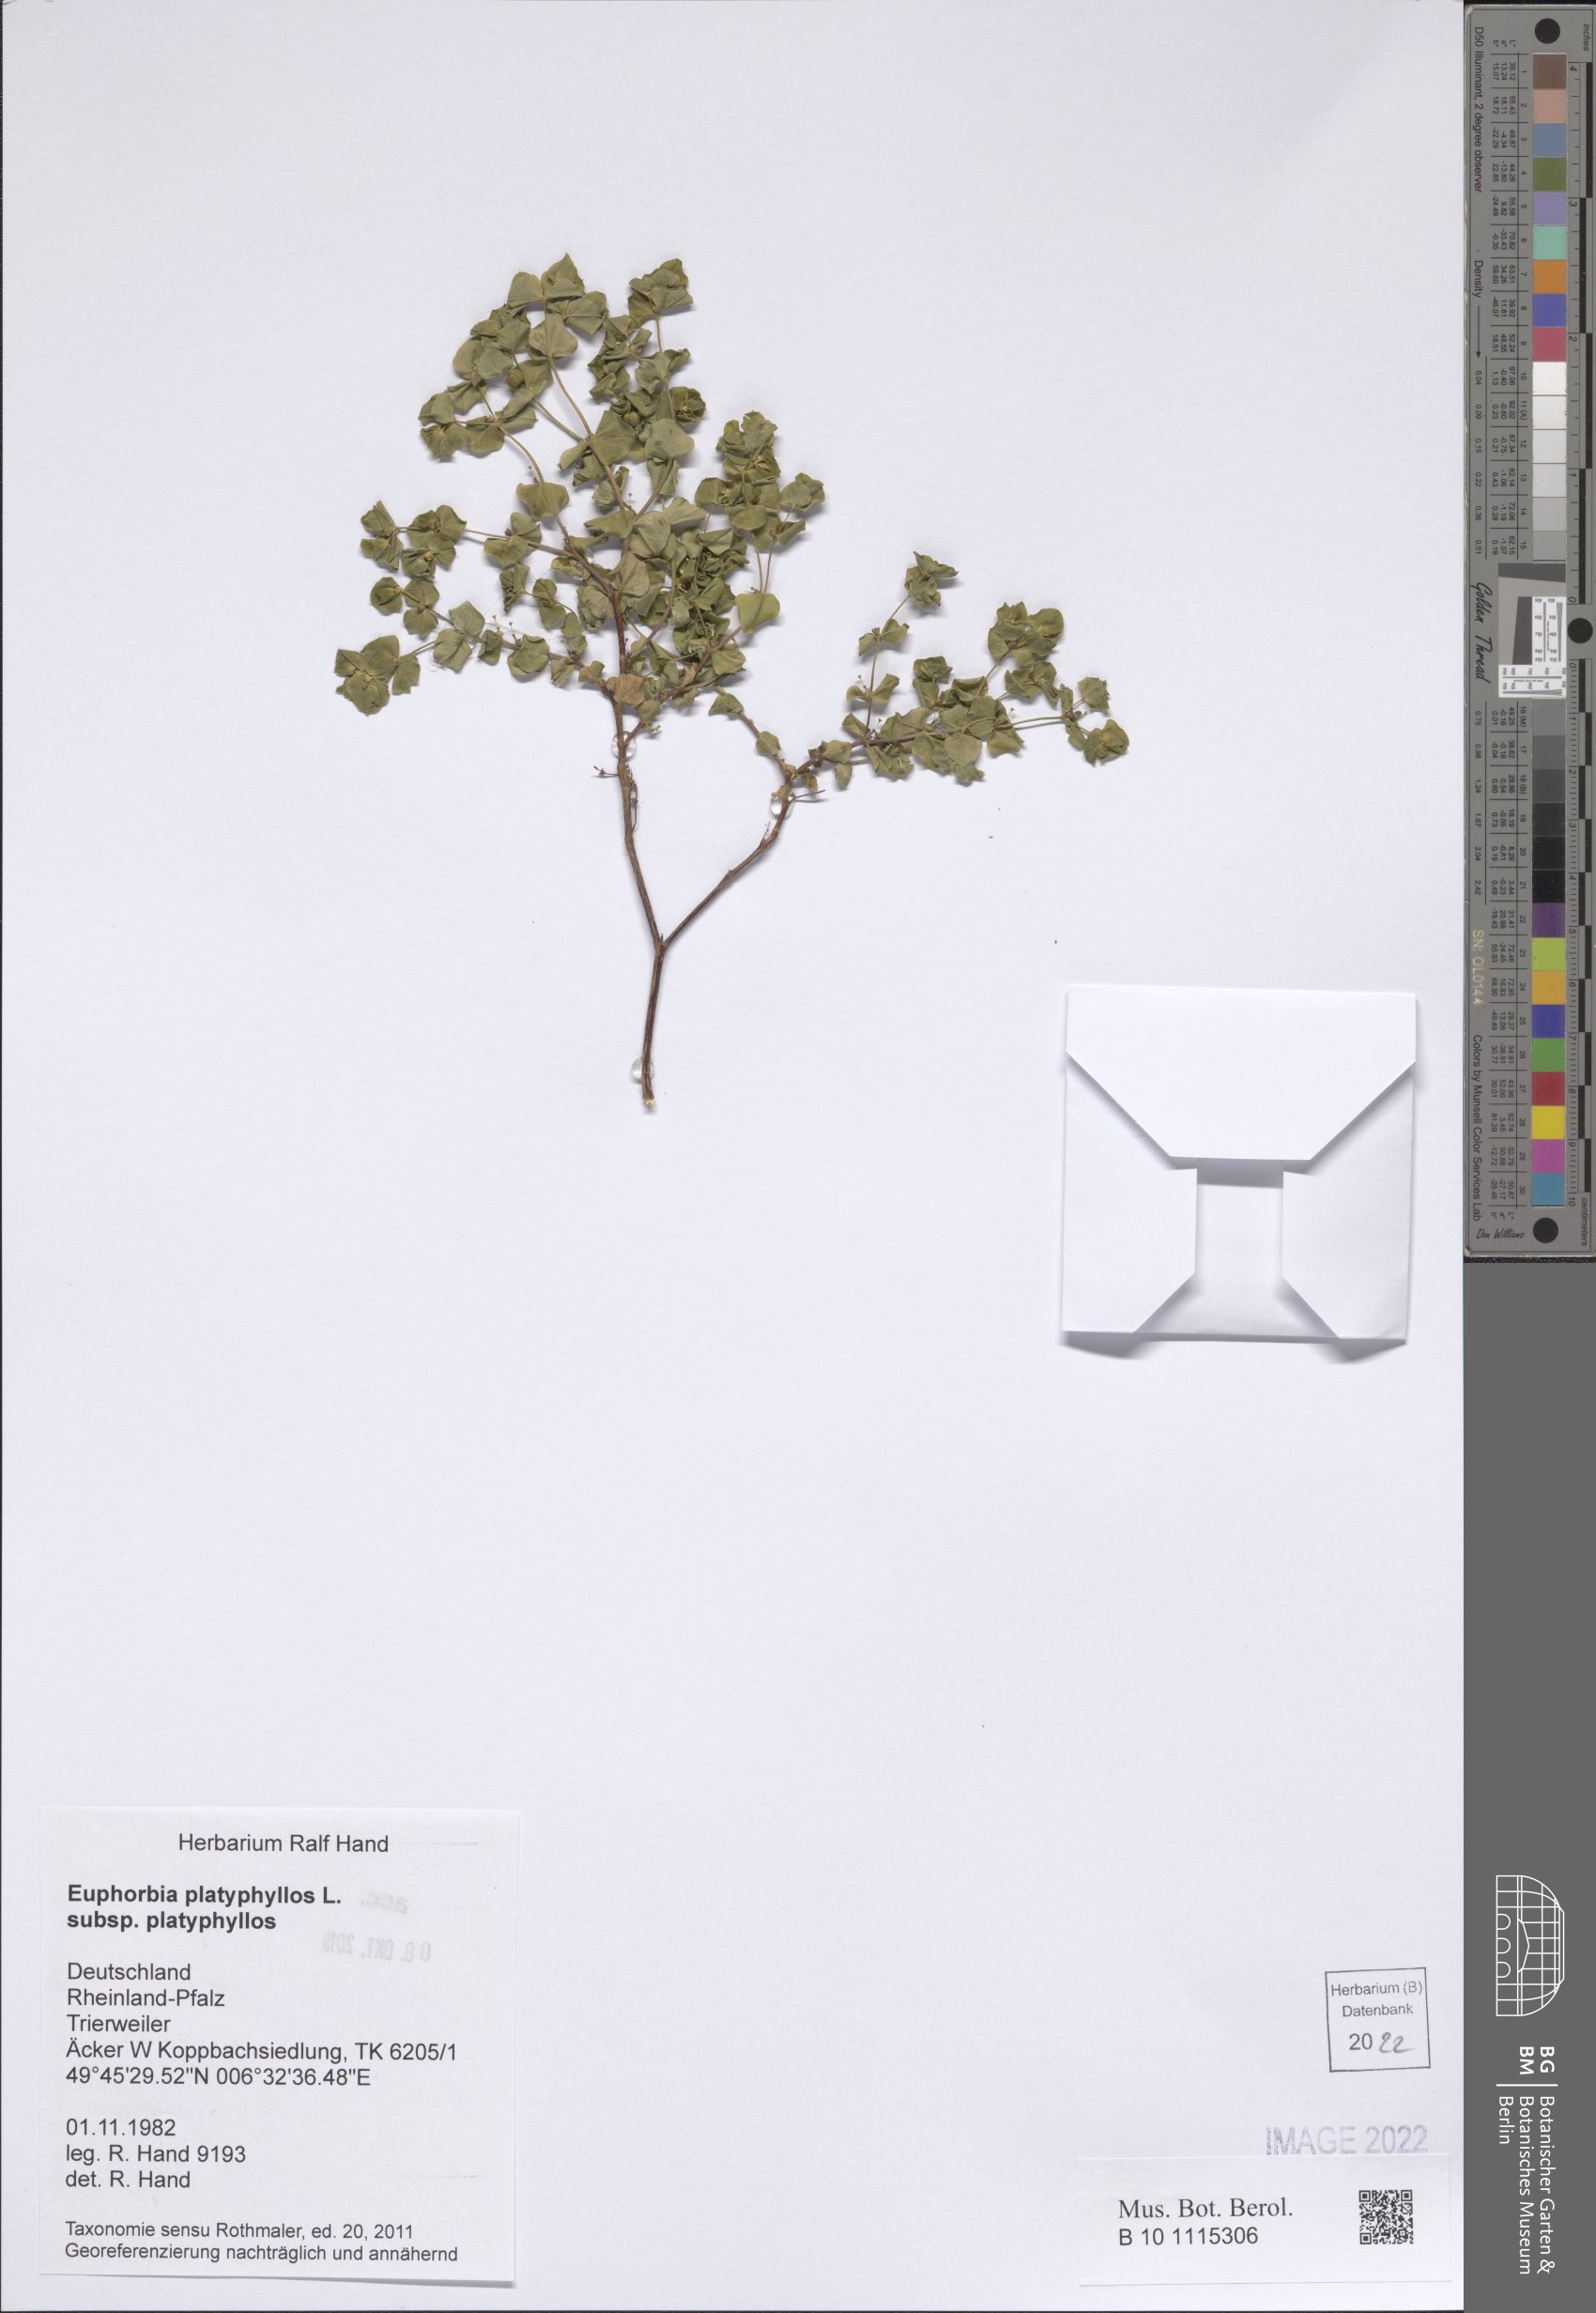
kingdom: Plantae
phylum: Tracheophyta
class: Magnoliopsida
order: Malpighiales
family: Euphorbiaceae
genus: Euphorbia
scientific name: Euphorbia platyphyllos
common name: Broad-leaved spurge
